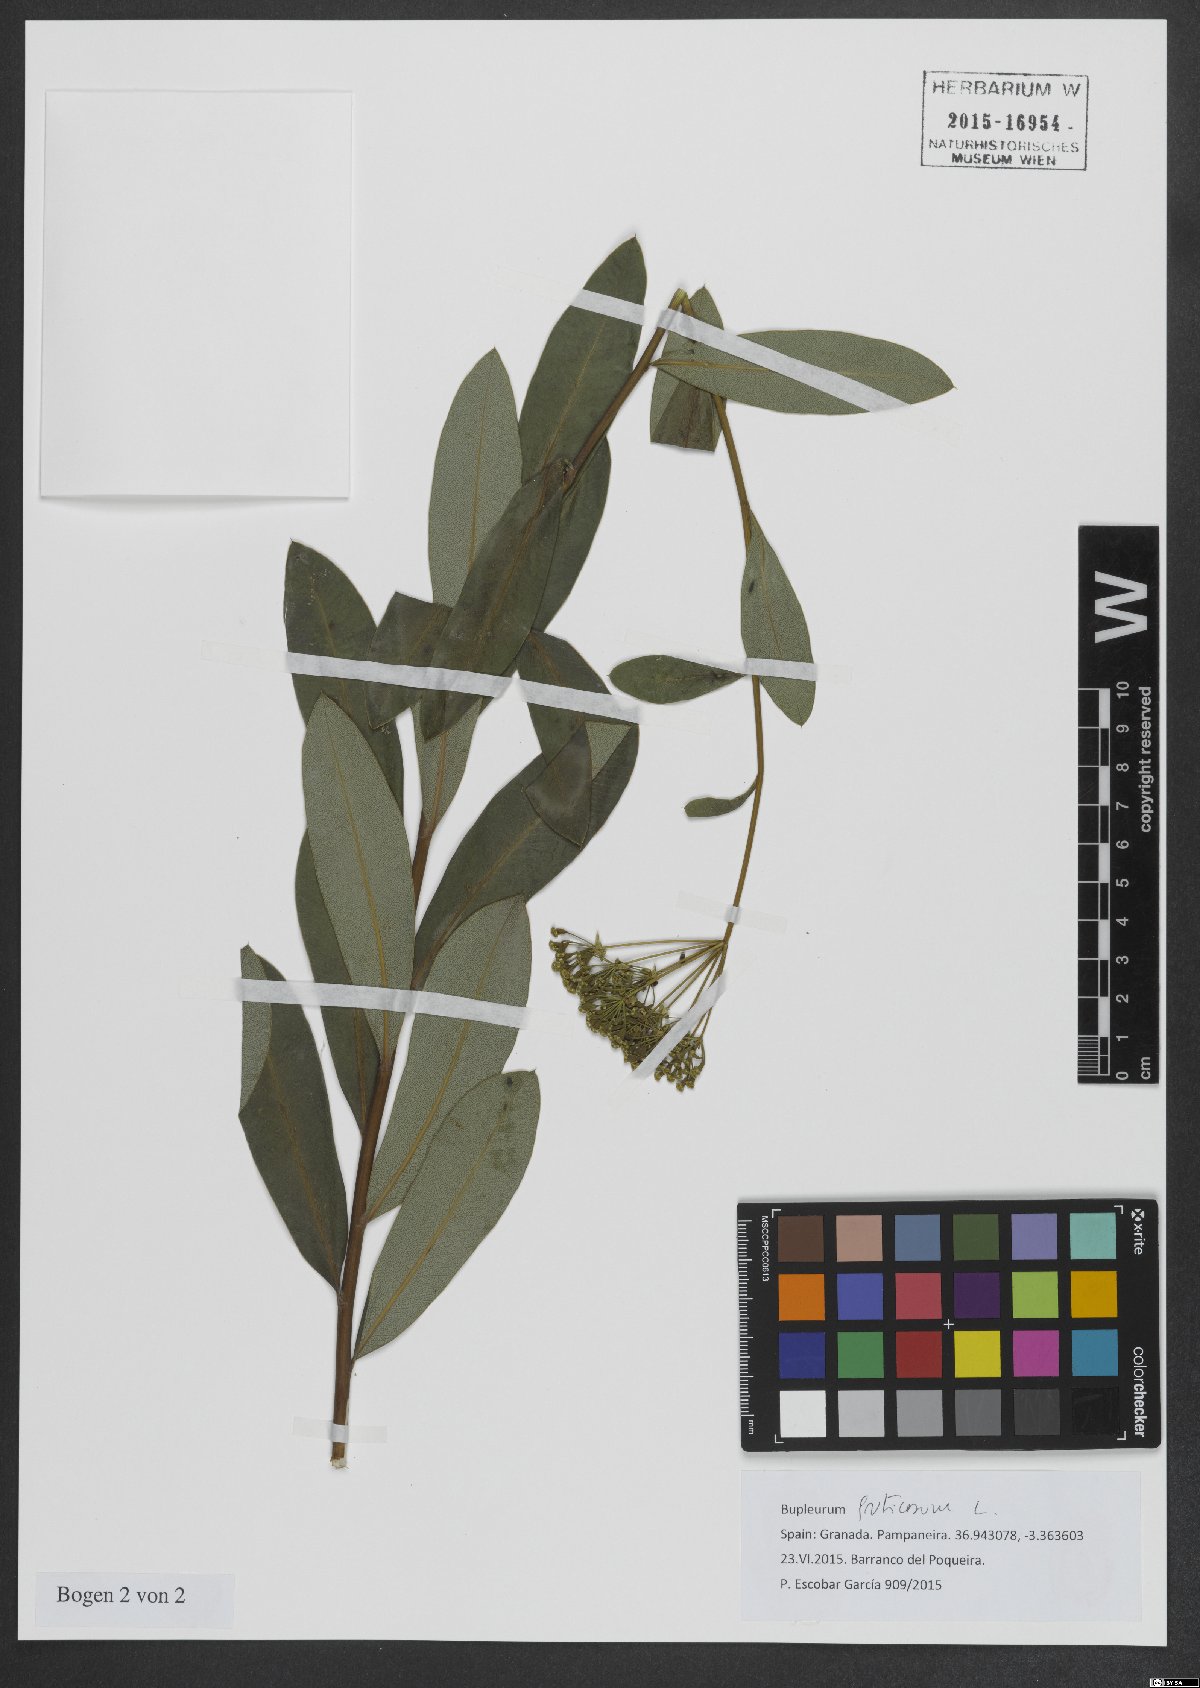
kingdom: Plantae
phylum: Tracheophyta
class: Magnoliopsida
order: Apiales
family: Apiaceae
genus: Bupleurum
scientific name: Bupleurum fruticosum
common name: Shrubby hare's-ear
